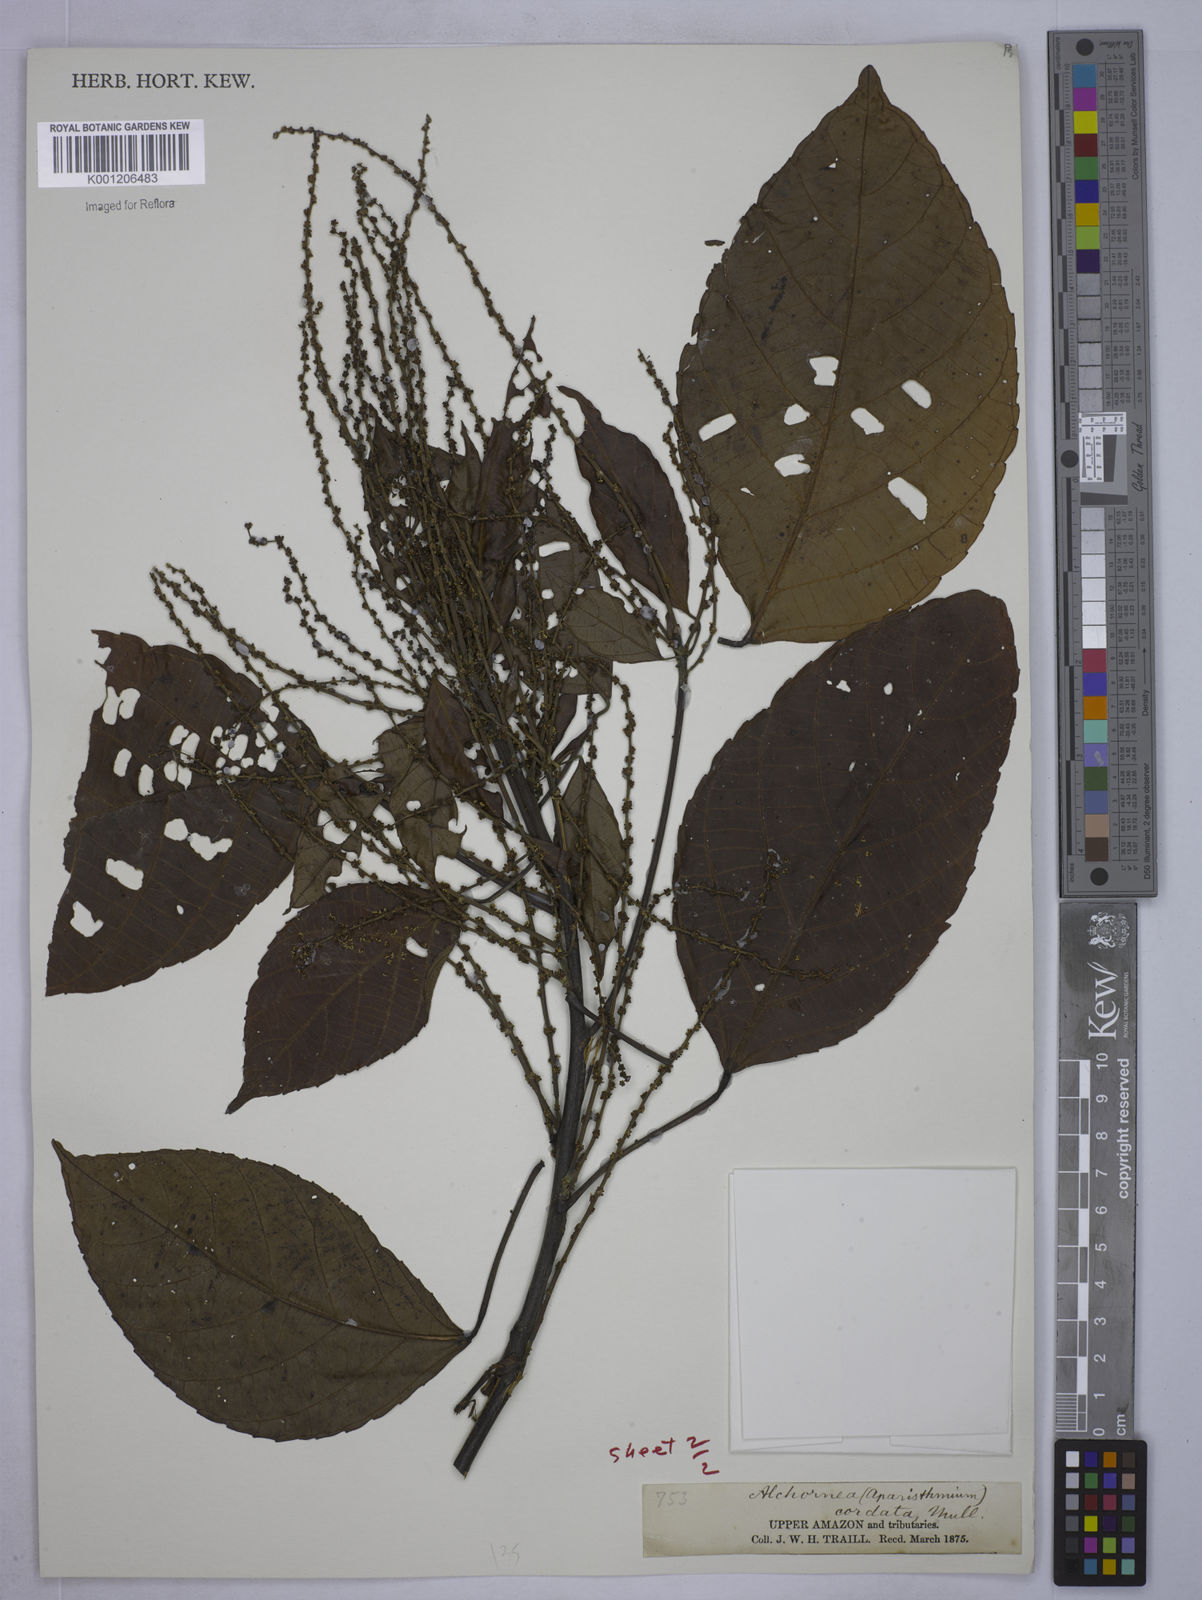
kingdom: Plantae
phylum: Tracheophyta
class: Magnoliopsida
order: Malpighiales
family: Euphorbiaceae
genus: Aparisthmium
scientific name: Aparisthmium cordatum
